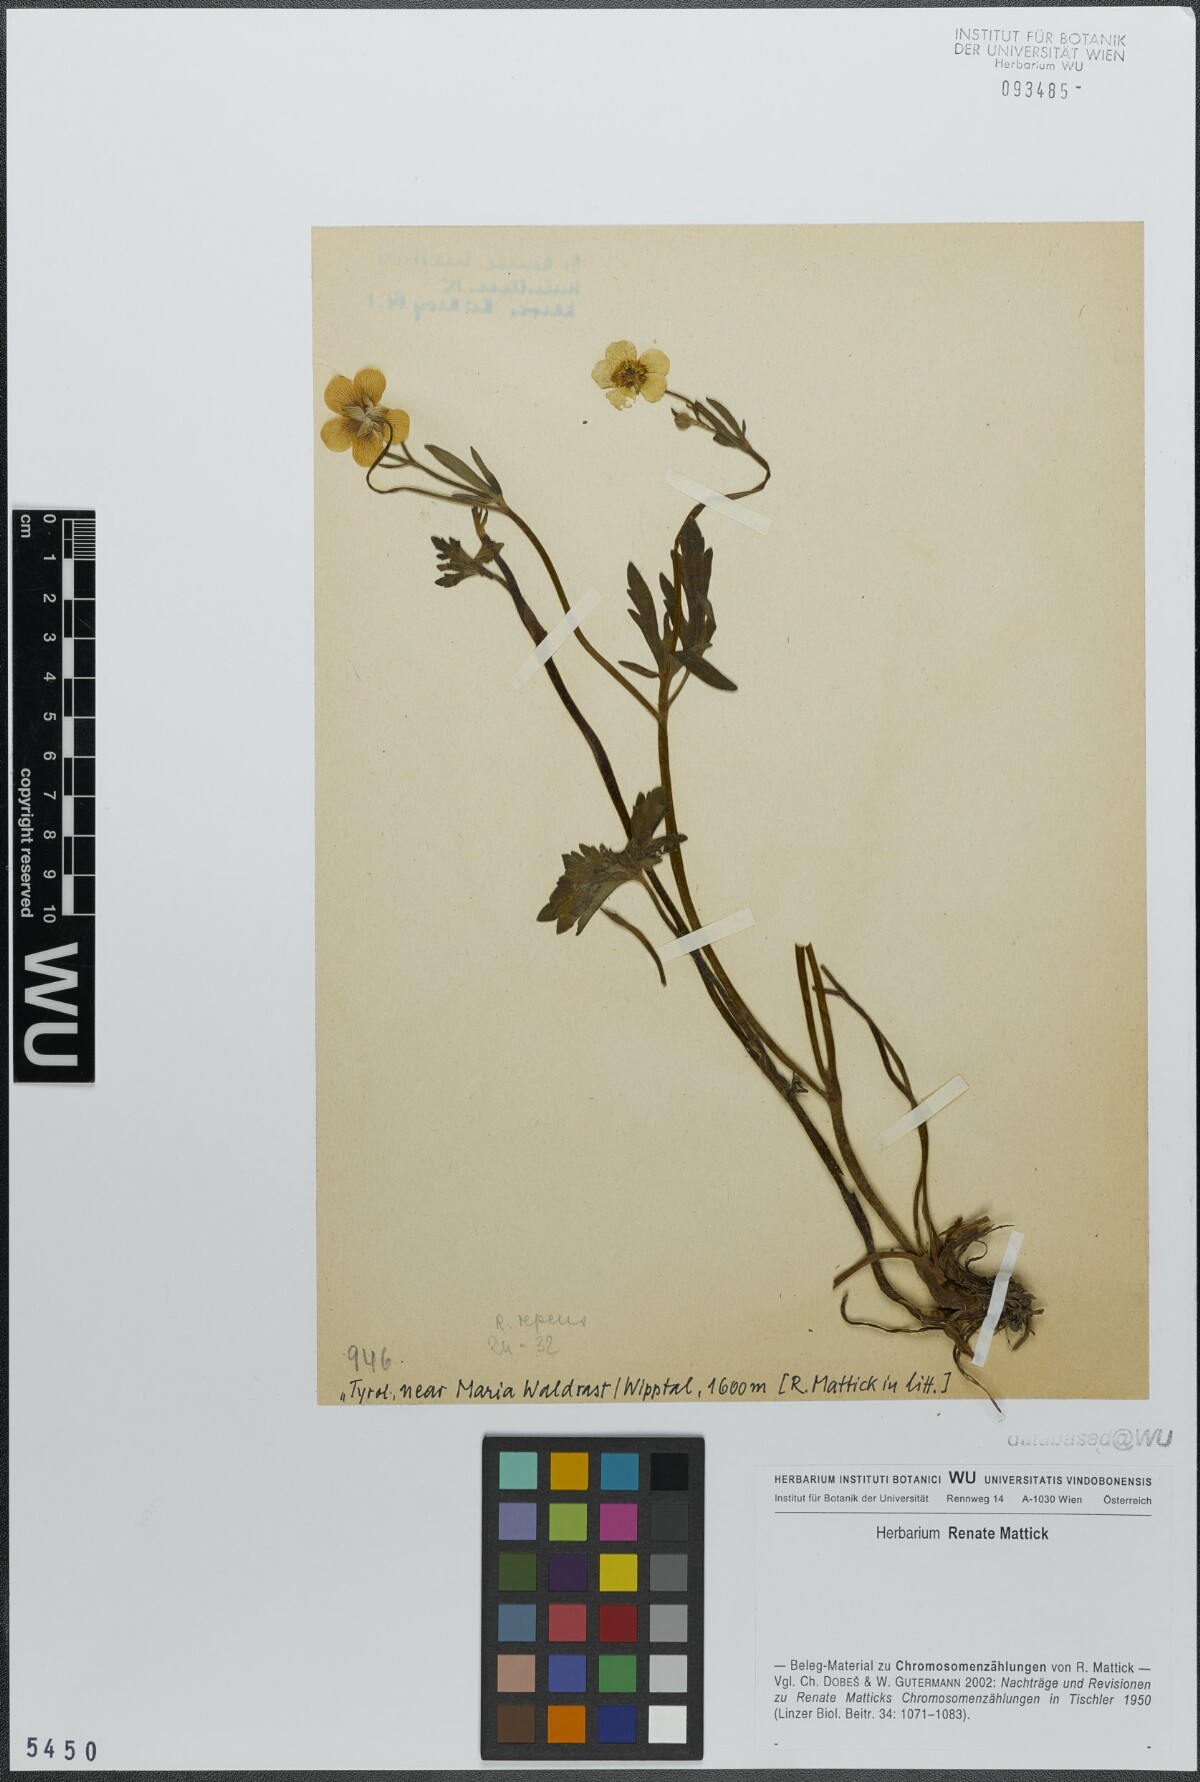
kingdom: Plantae
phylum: Tracheophyta
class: Magnoliopsida
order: Ranunculales
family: Ranunculaceae
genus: Ranunculus
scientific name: Ranunculus repens
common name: Creeping buttercup
